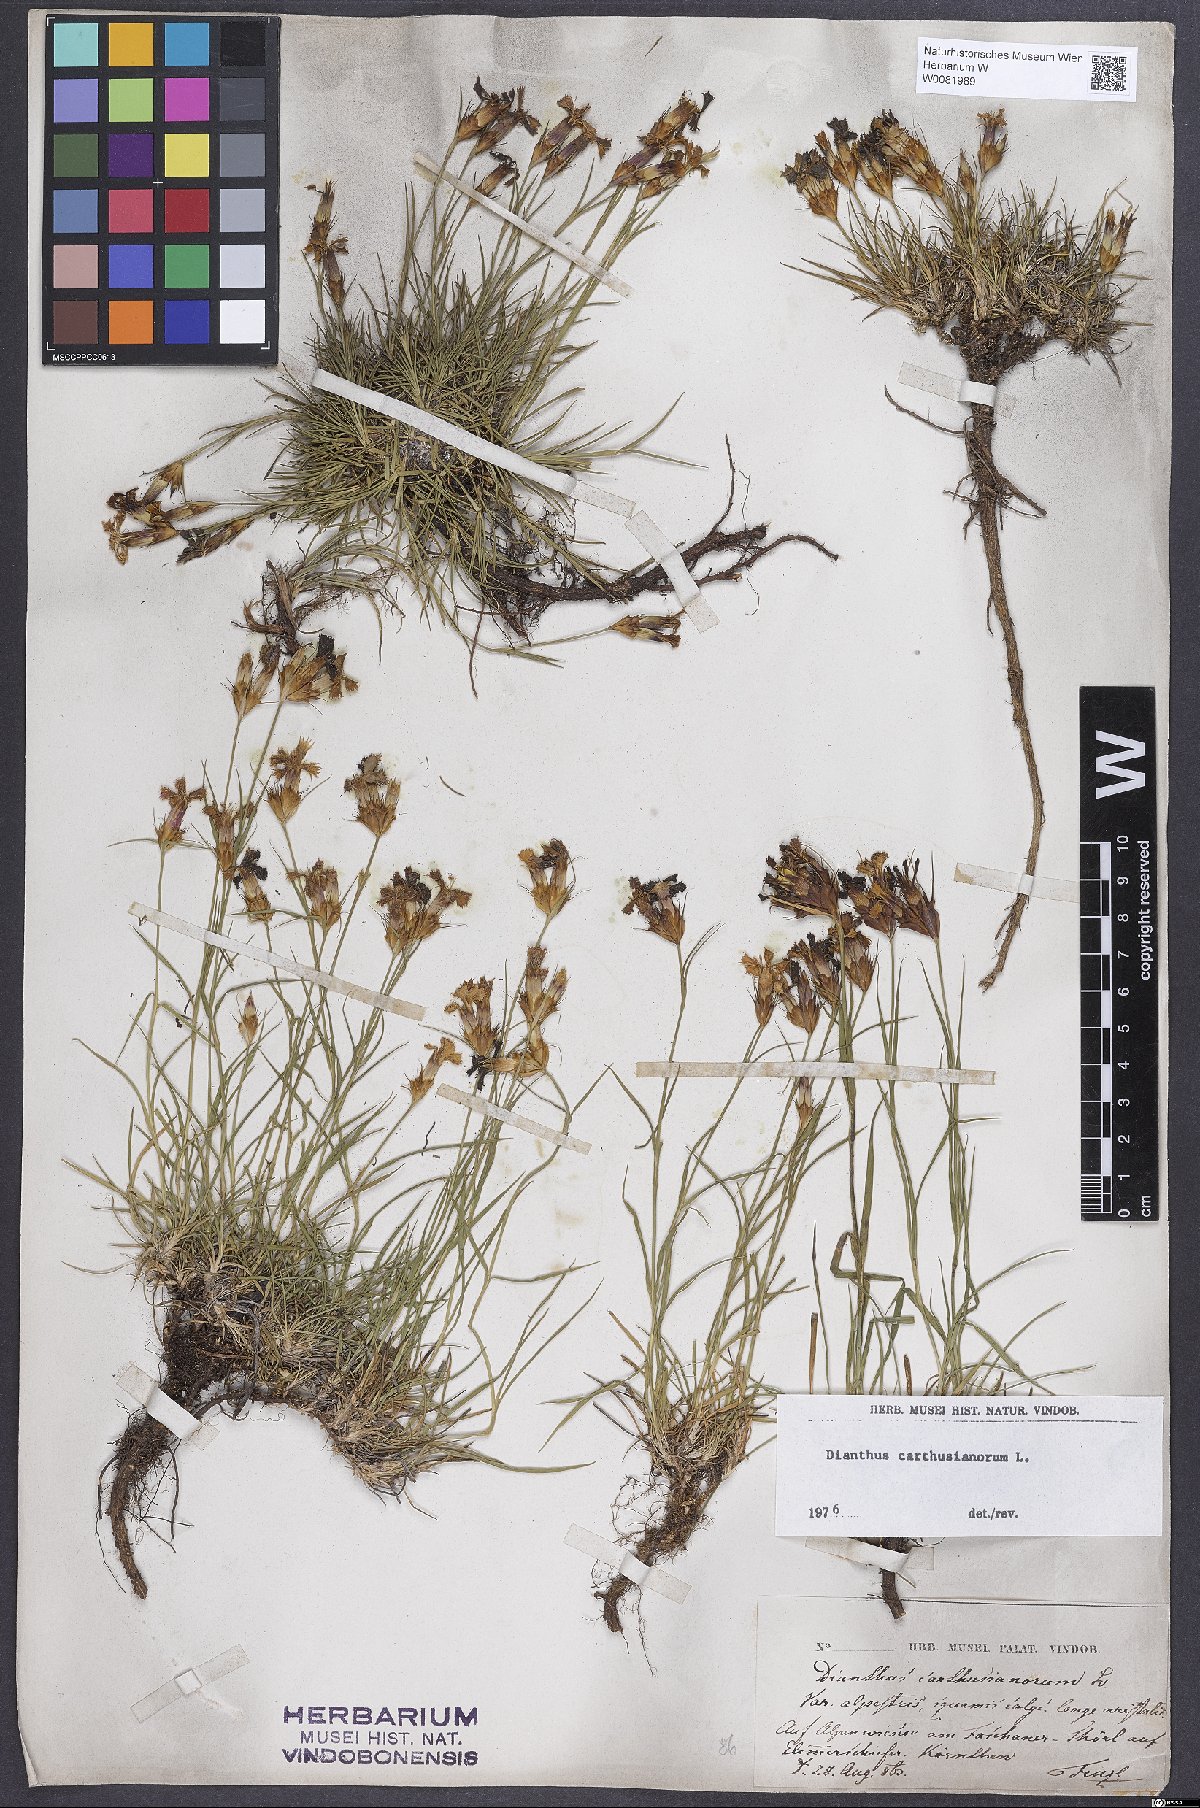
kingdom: Plantae
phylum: Tracheophyta
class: Magnoliopsida
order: Caryophyllales
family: Caryophyllaceae
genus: Dianthus
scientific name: Dianthus carthusianorum
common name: Carthusian pink
